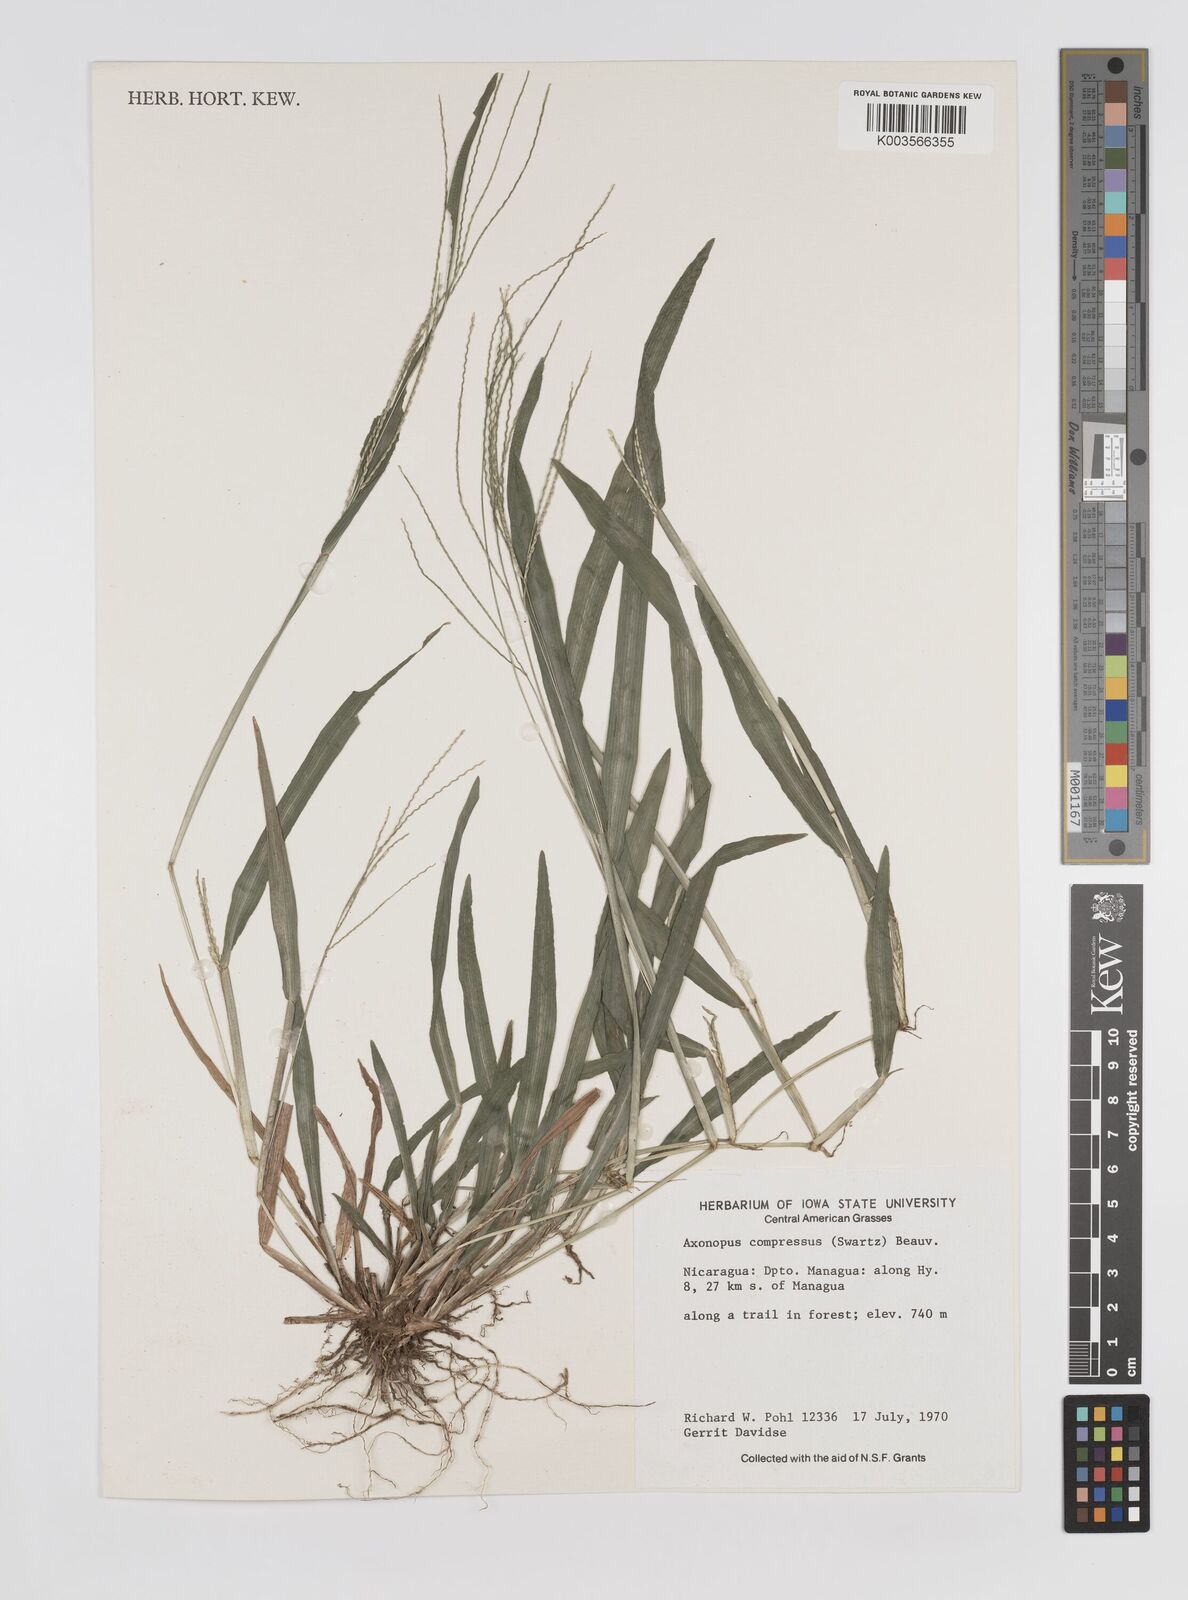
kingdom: Plantae
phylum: Tracheophyta
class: Liliopsida
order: Poales
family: Poaceae
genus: Axonopus
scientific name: Axonopus compressus
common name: American carpet grass
